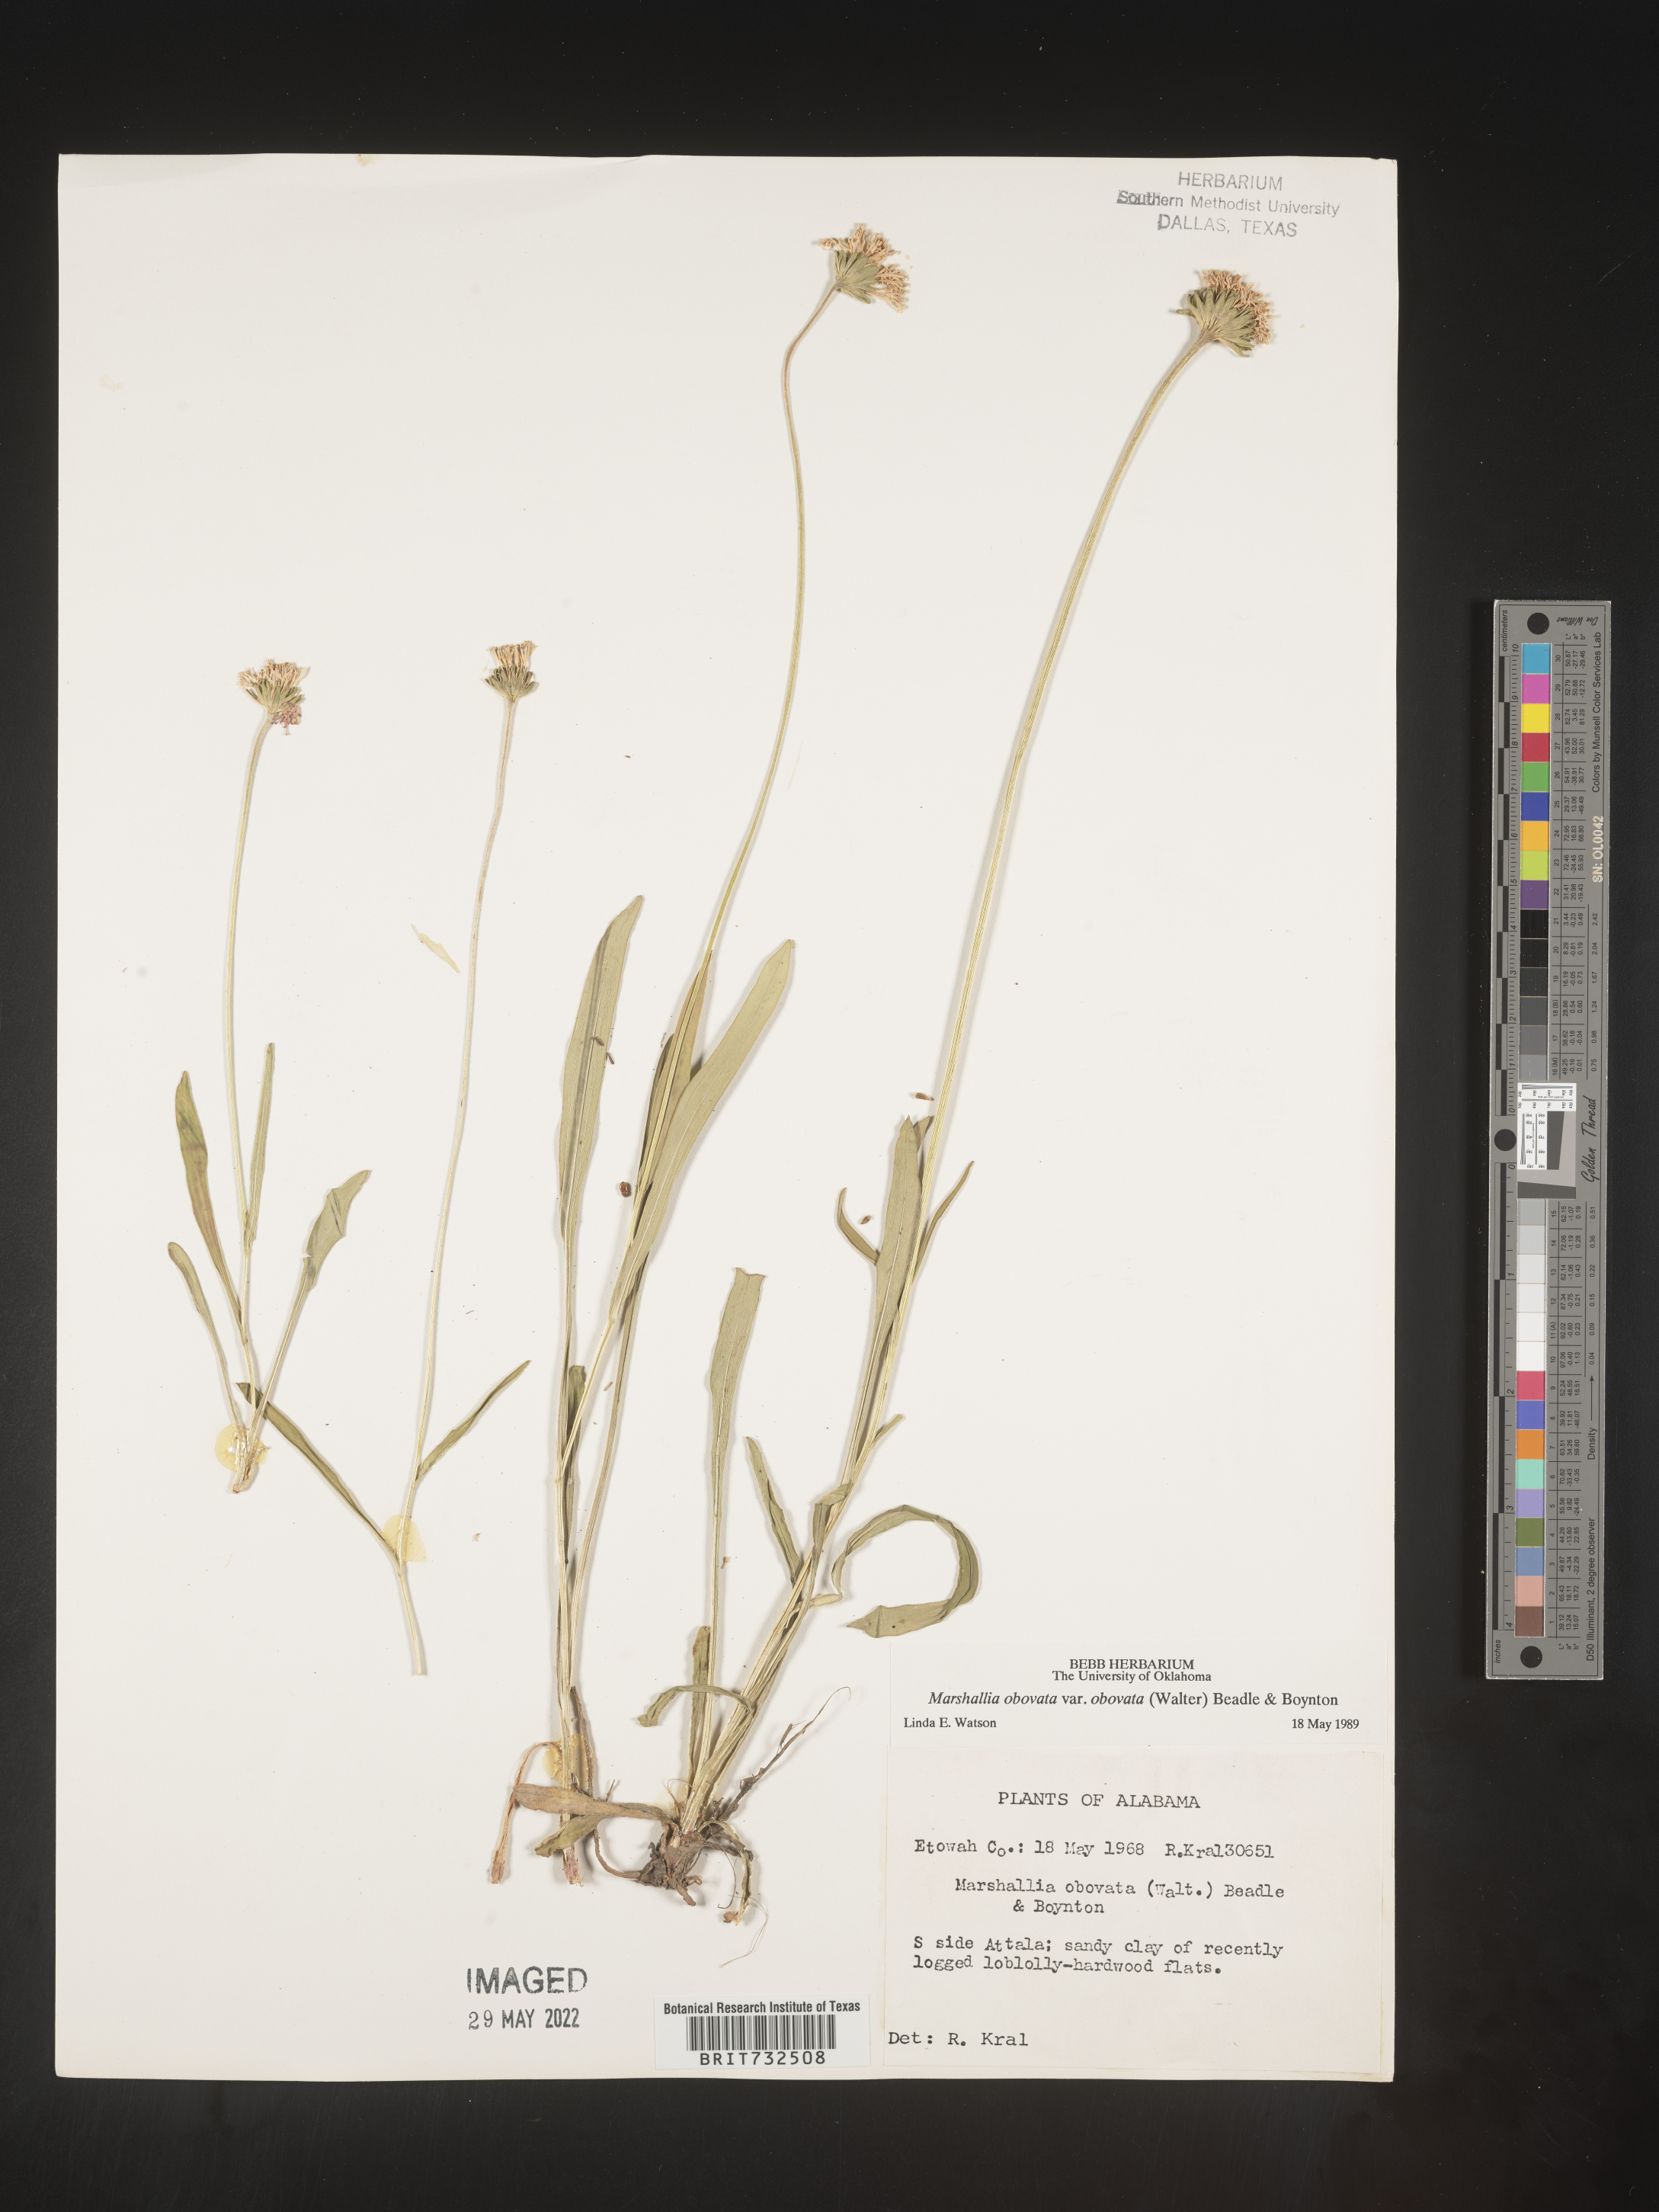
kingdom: Plantae
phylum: Tracheophyta
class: Magnoliopsida
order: Asterales
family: Asteraceae
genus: Marshallia
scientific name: Marshallia obovata
